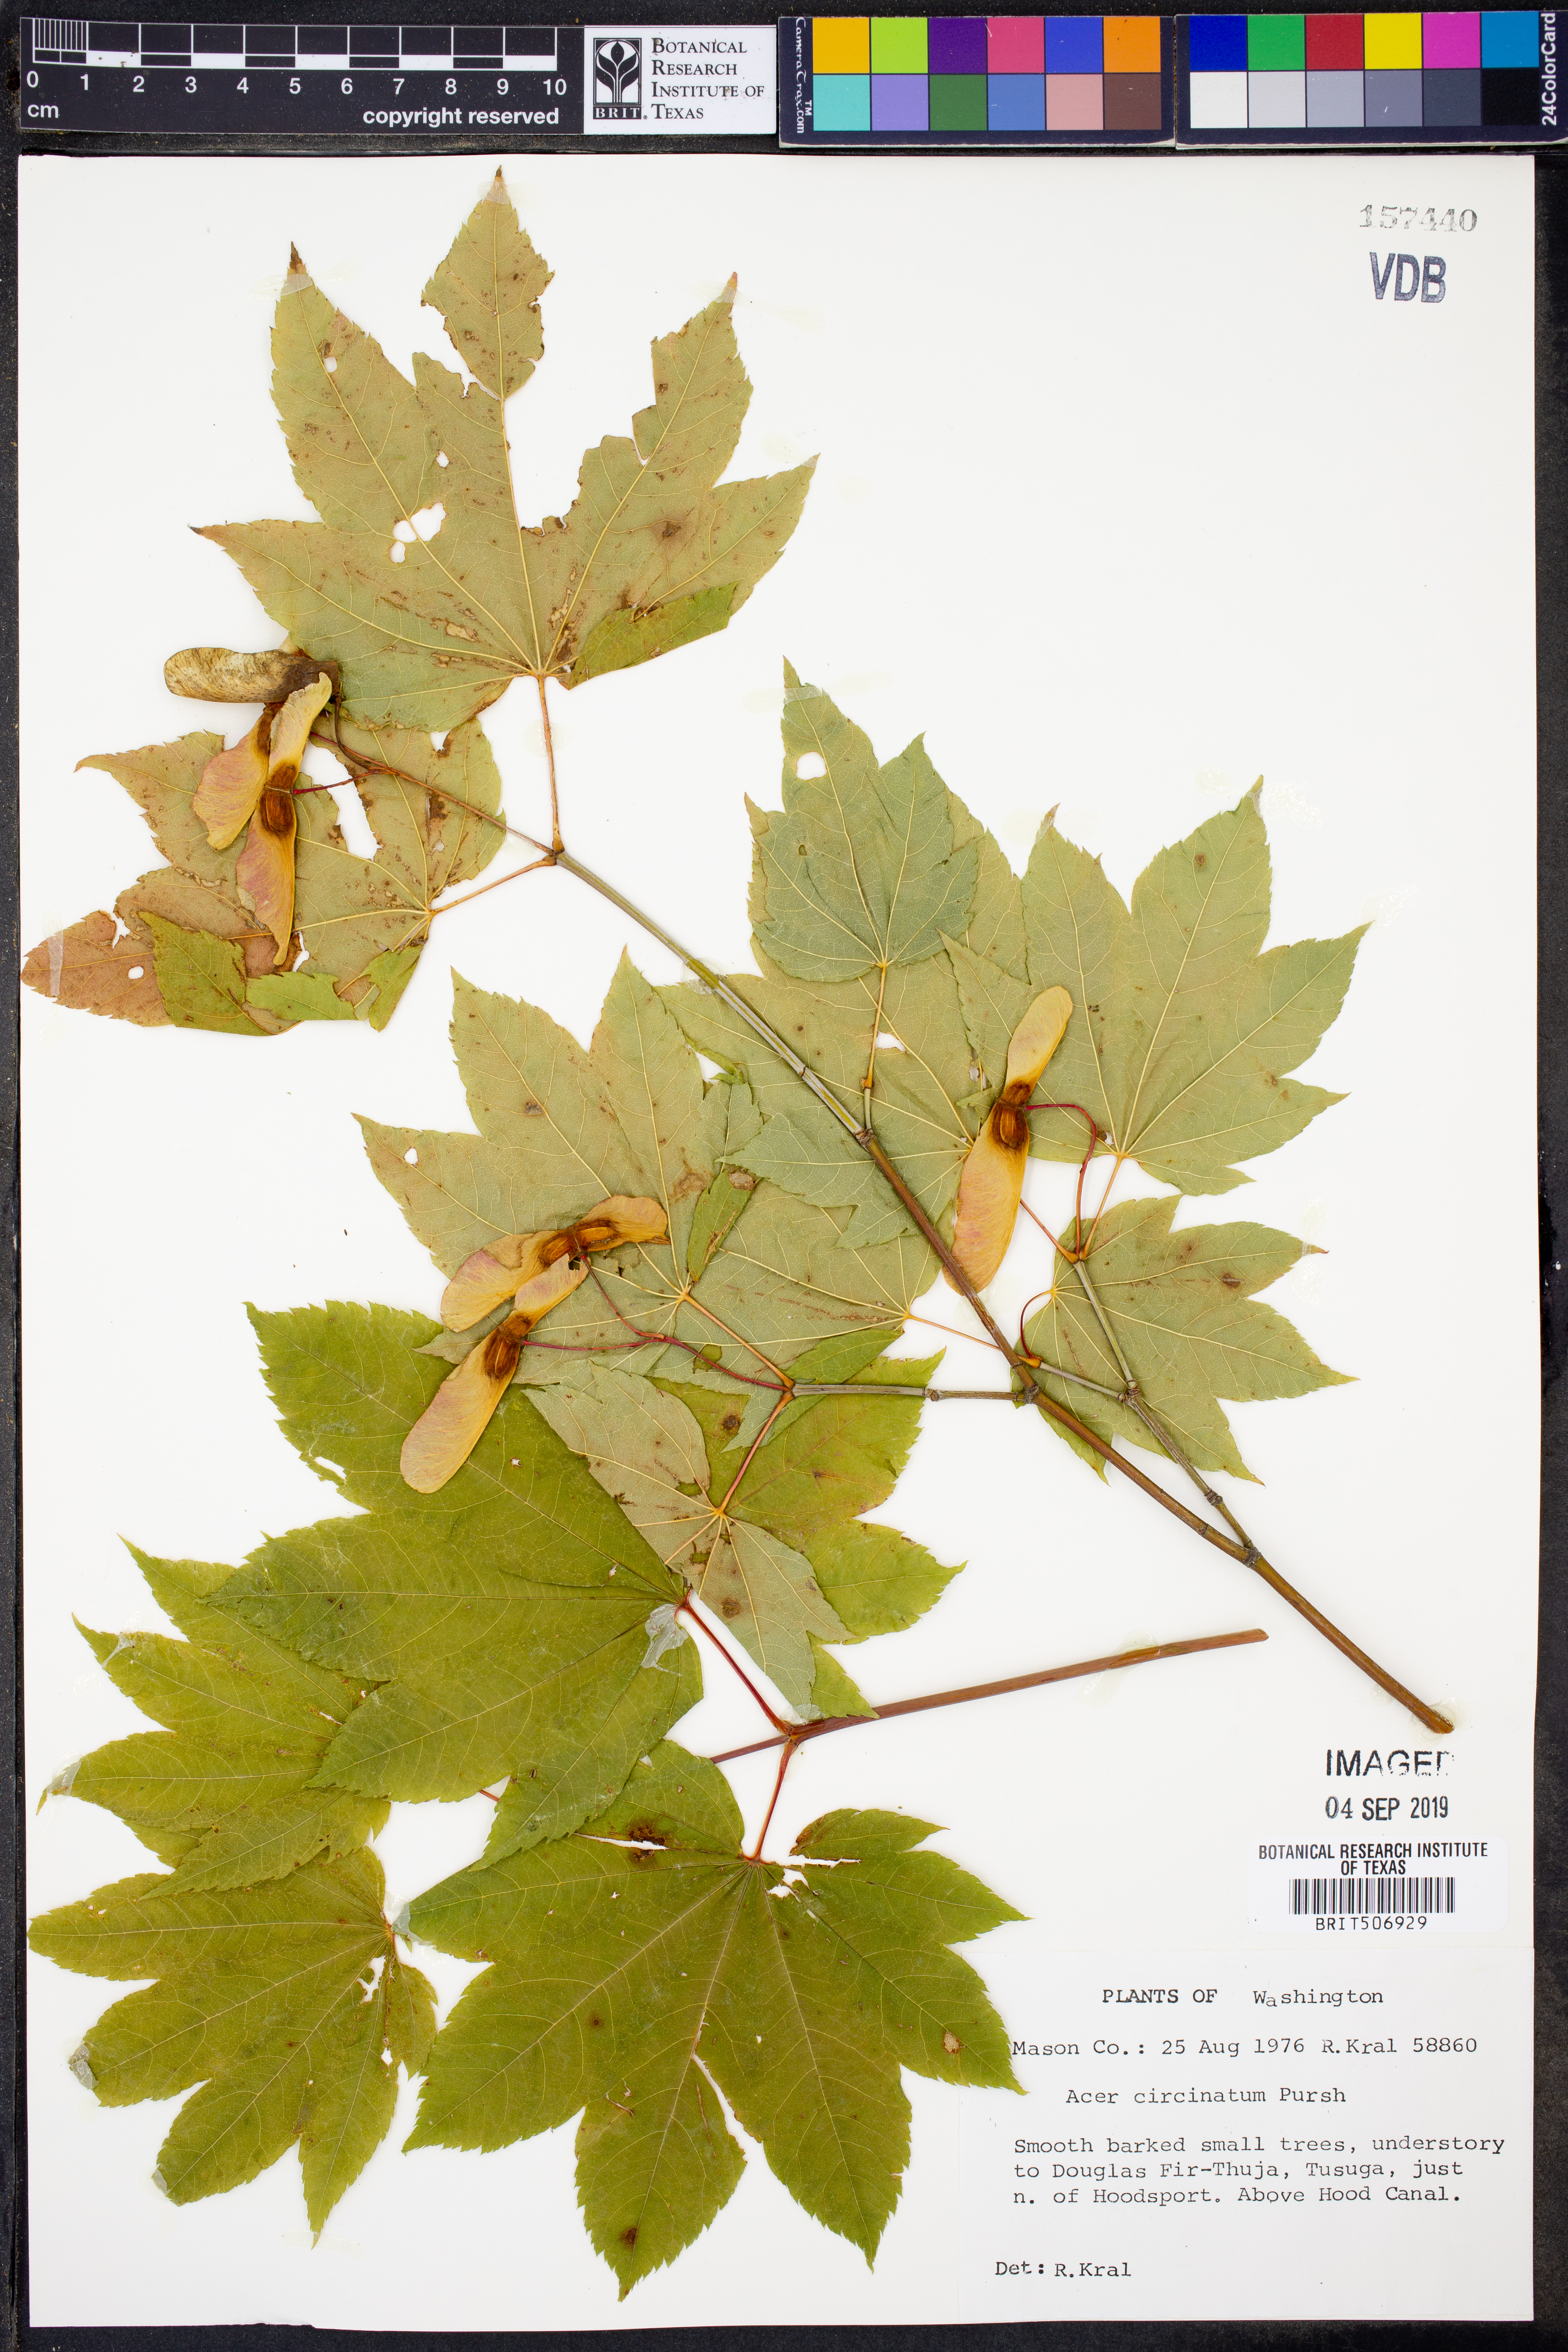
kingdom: Plantae
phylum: Tracheophyta
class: Magnoliopsida
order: Sapindales
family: Sapindaceae
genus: Acer
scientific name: Acer circinatum
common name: Vine maple
